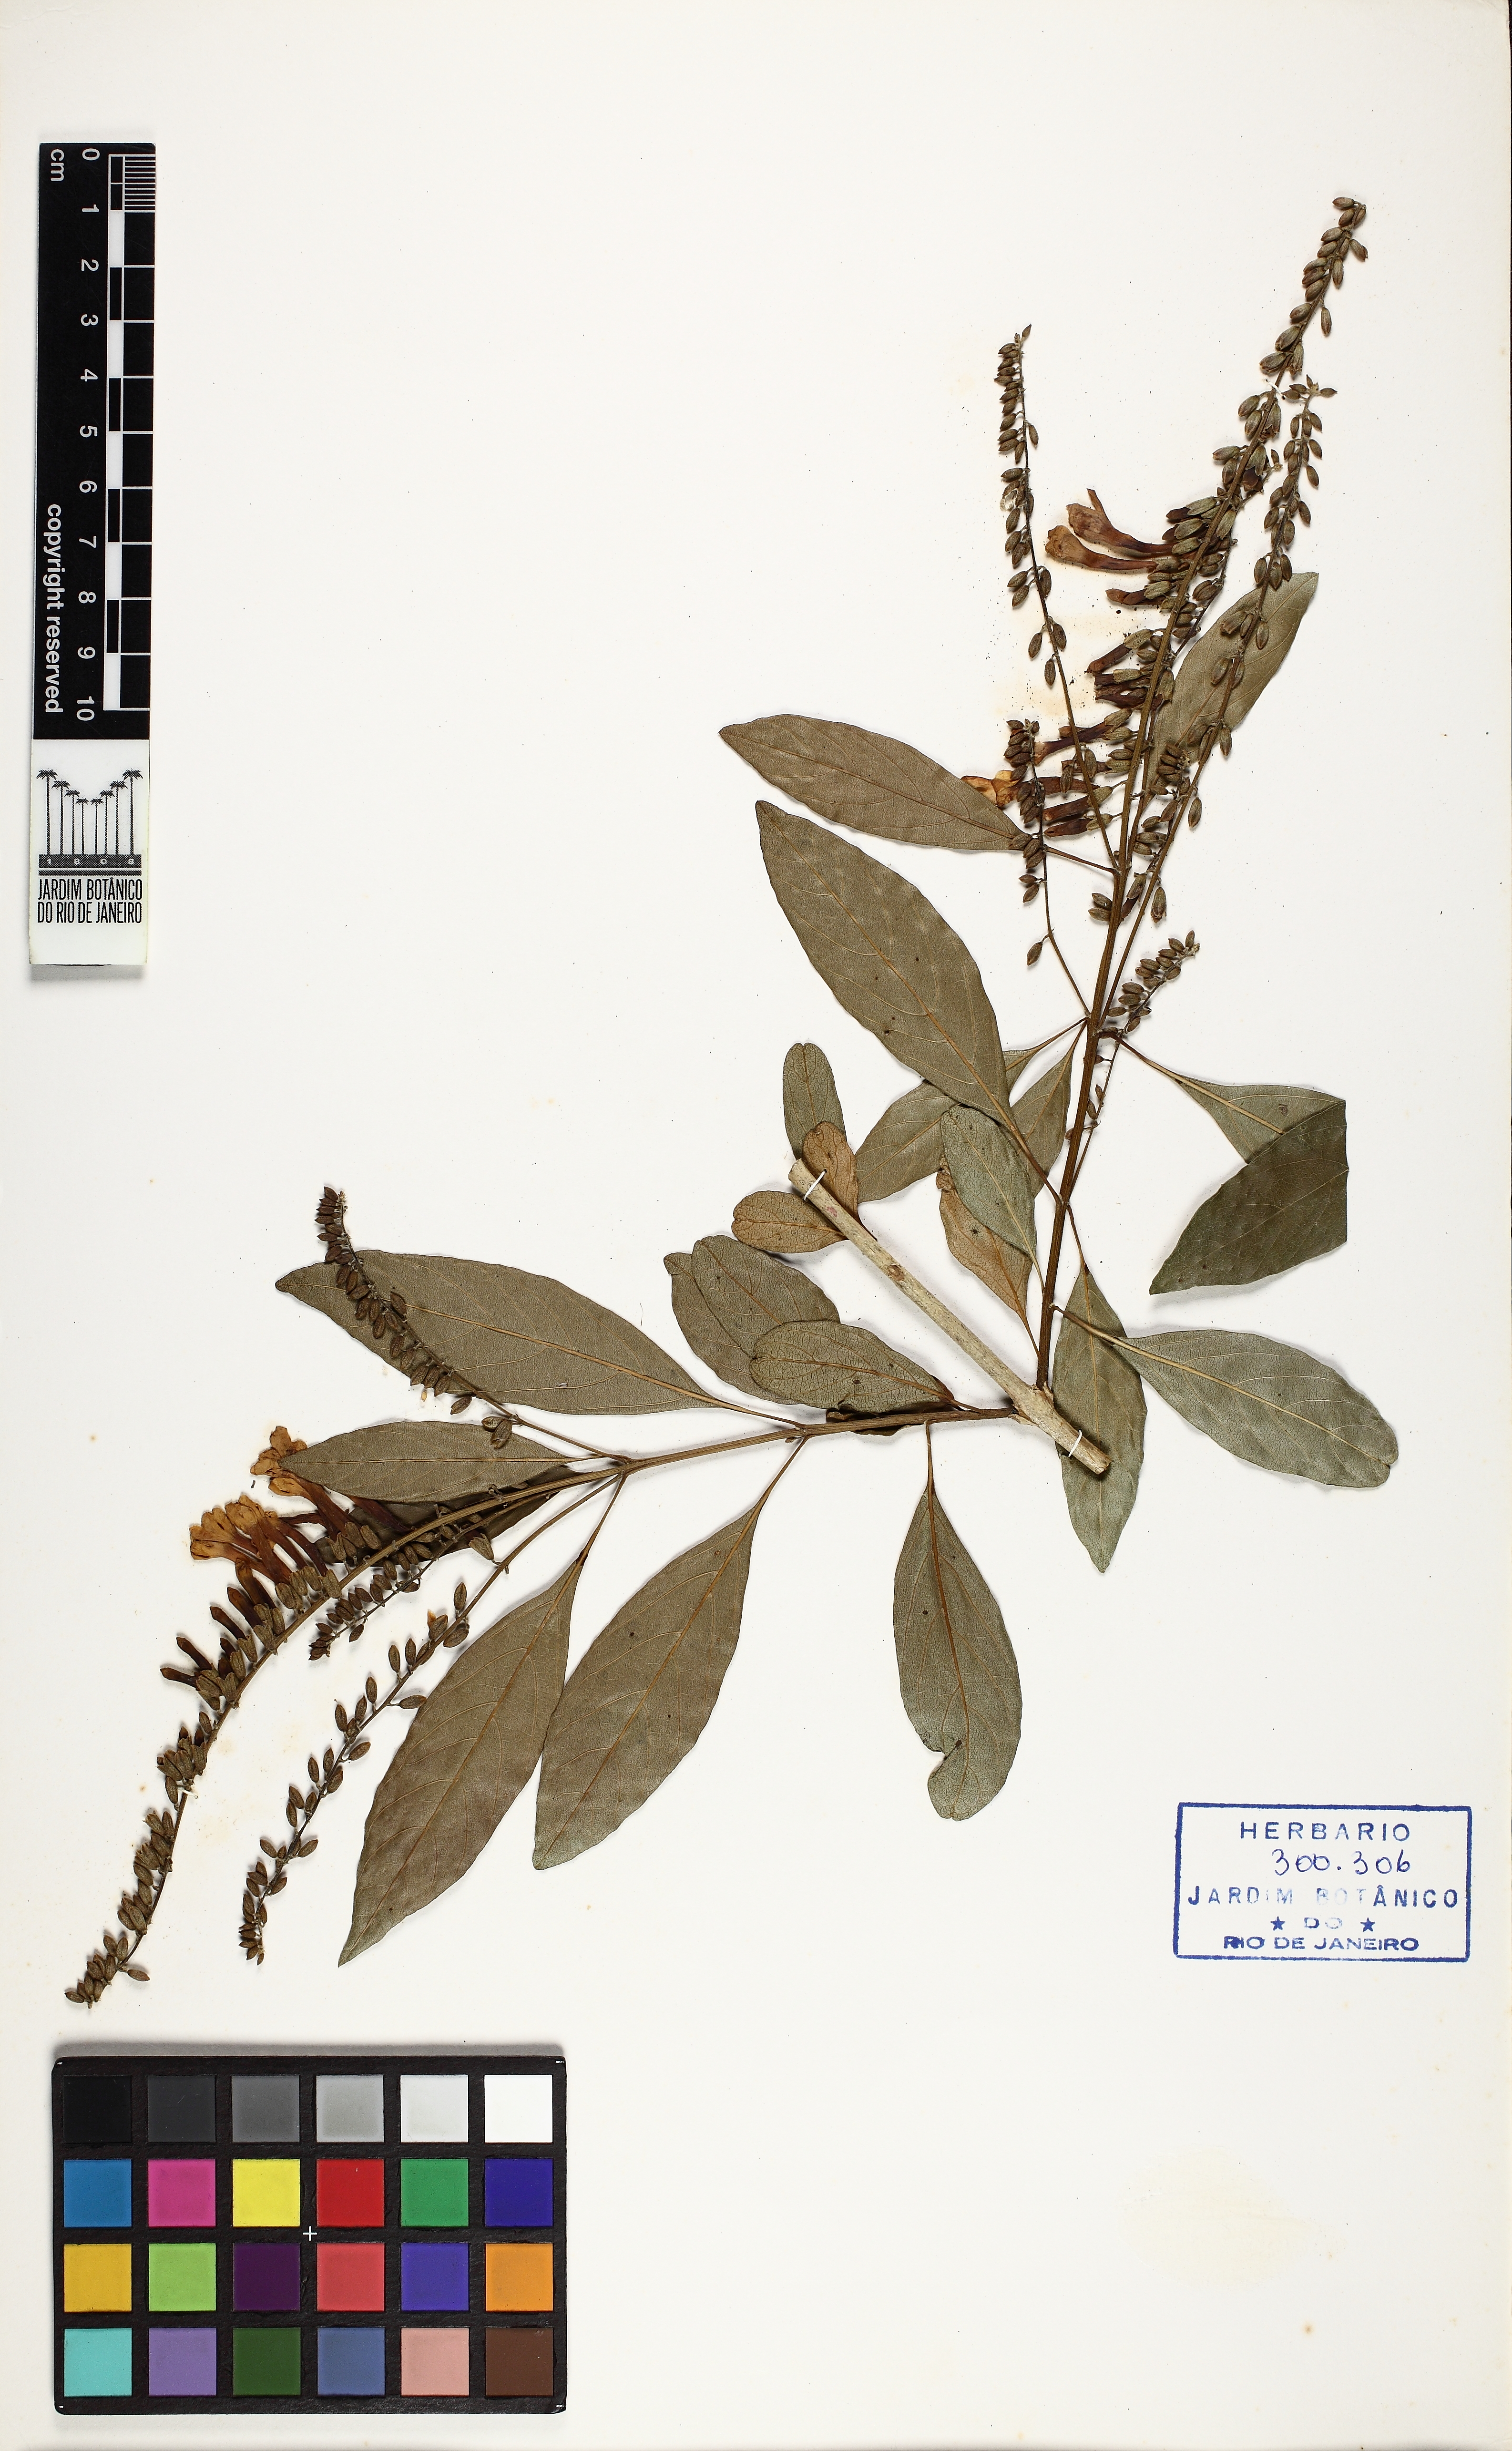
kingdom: Plantae
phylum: Tracheophyta
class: Magnoliopsida
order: Lamiales
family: Verbenaceae
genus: Citharexylum
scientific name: Citharexylum myrianthum
